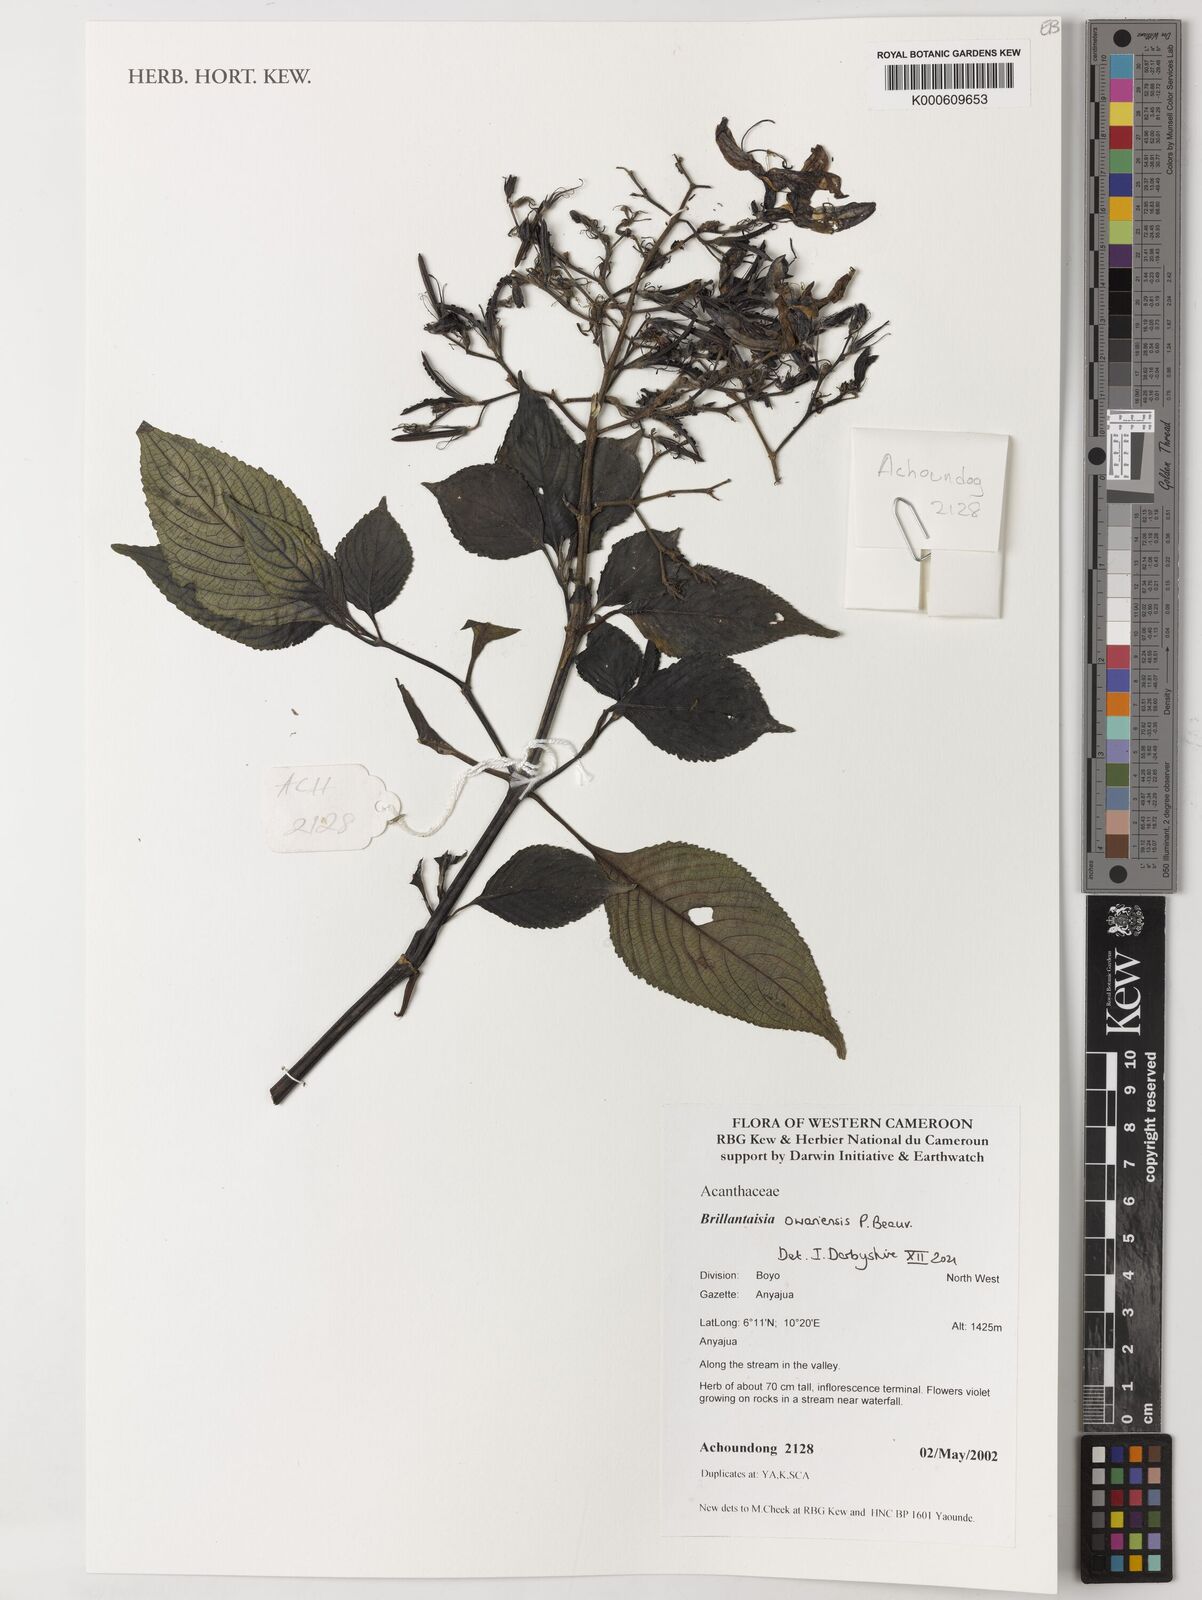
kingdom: Plantae
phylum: Tracheophyta
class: Magnoliopsida
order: Lamiales
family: Acanthaceae
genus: Brillantaisia
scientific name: Brillantaisia owariensis
